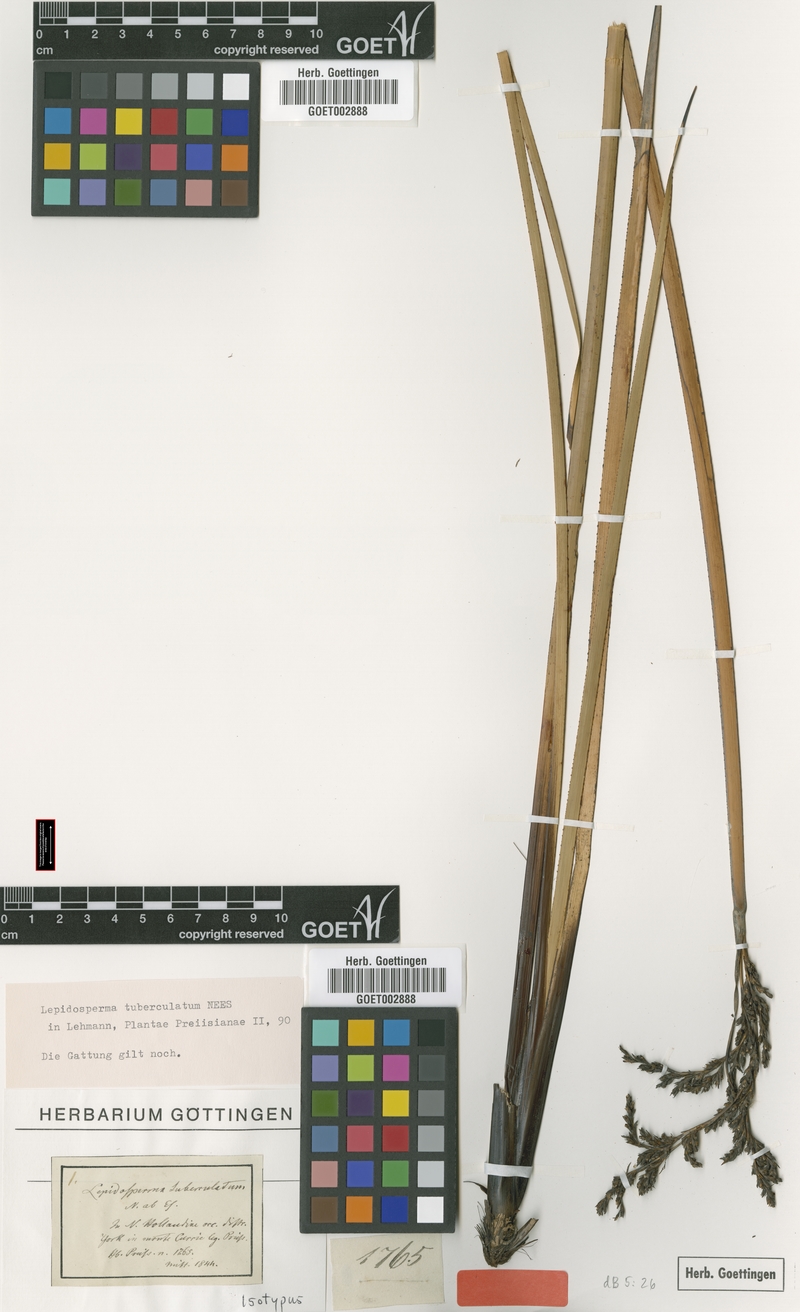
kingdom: Plantae
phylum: Tracheophyta
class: Liliopsida
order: Poales
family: Cyperaceae
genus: Lepidosperma
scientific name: Lepidosperma tuberculatum
